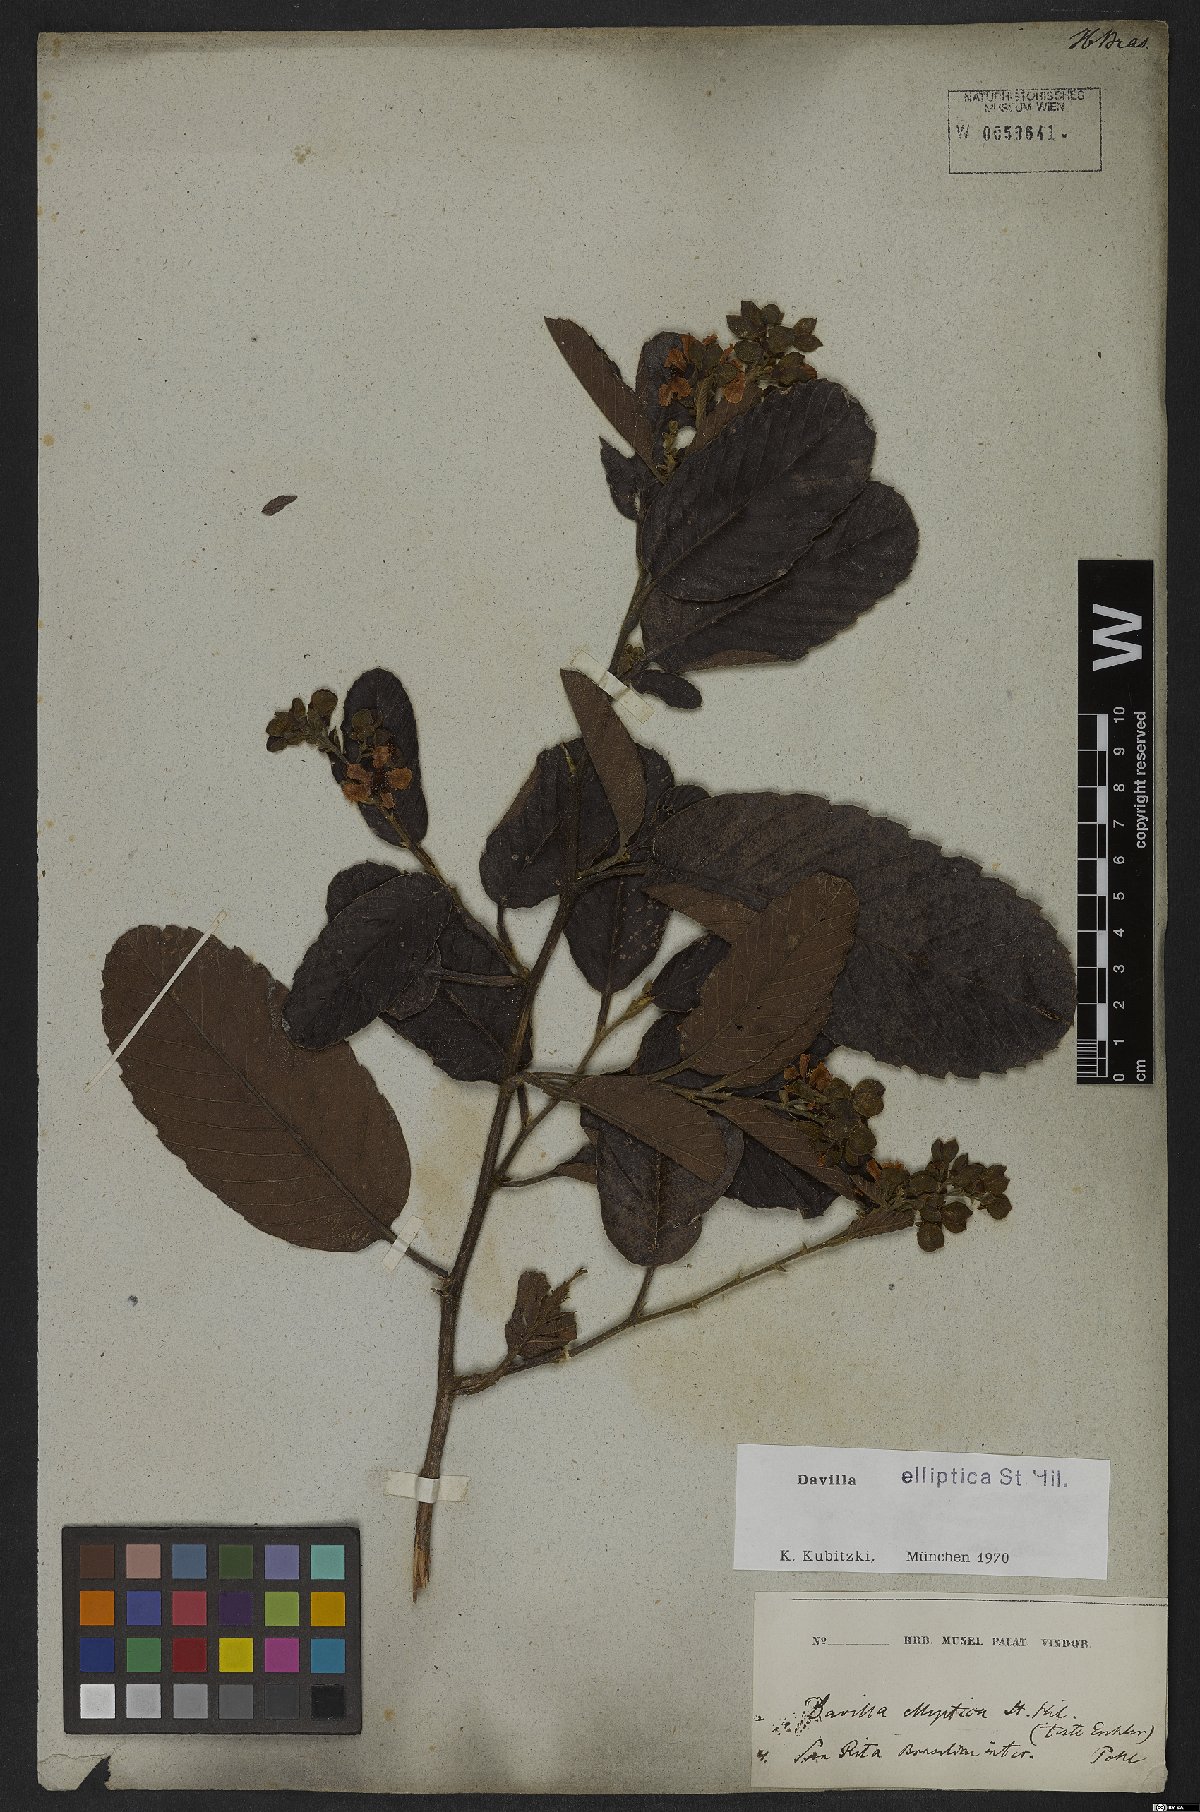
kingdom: Plantae
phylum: Tracheophyta
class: Magnoliopsida
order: Dilleniales
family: Dilleniaceae
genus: Davilla
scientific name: Davilla elliptica
